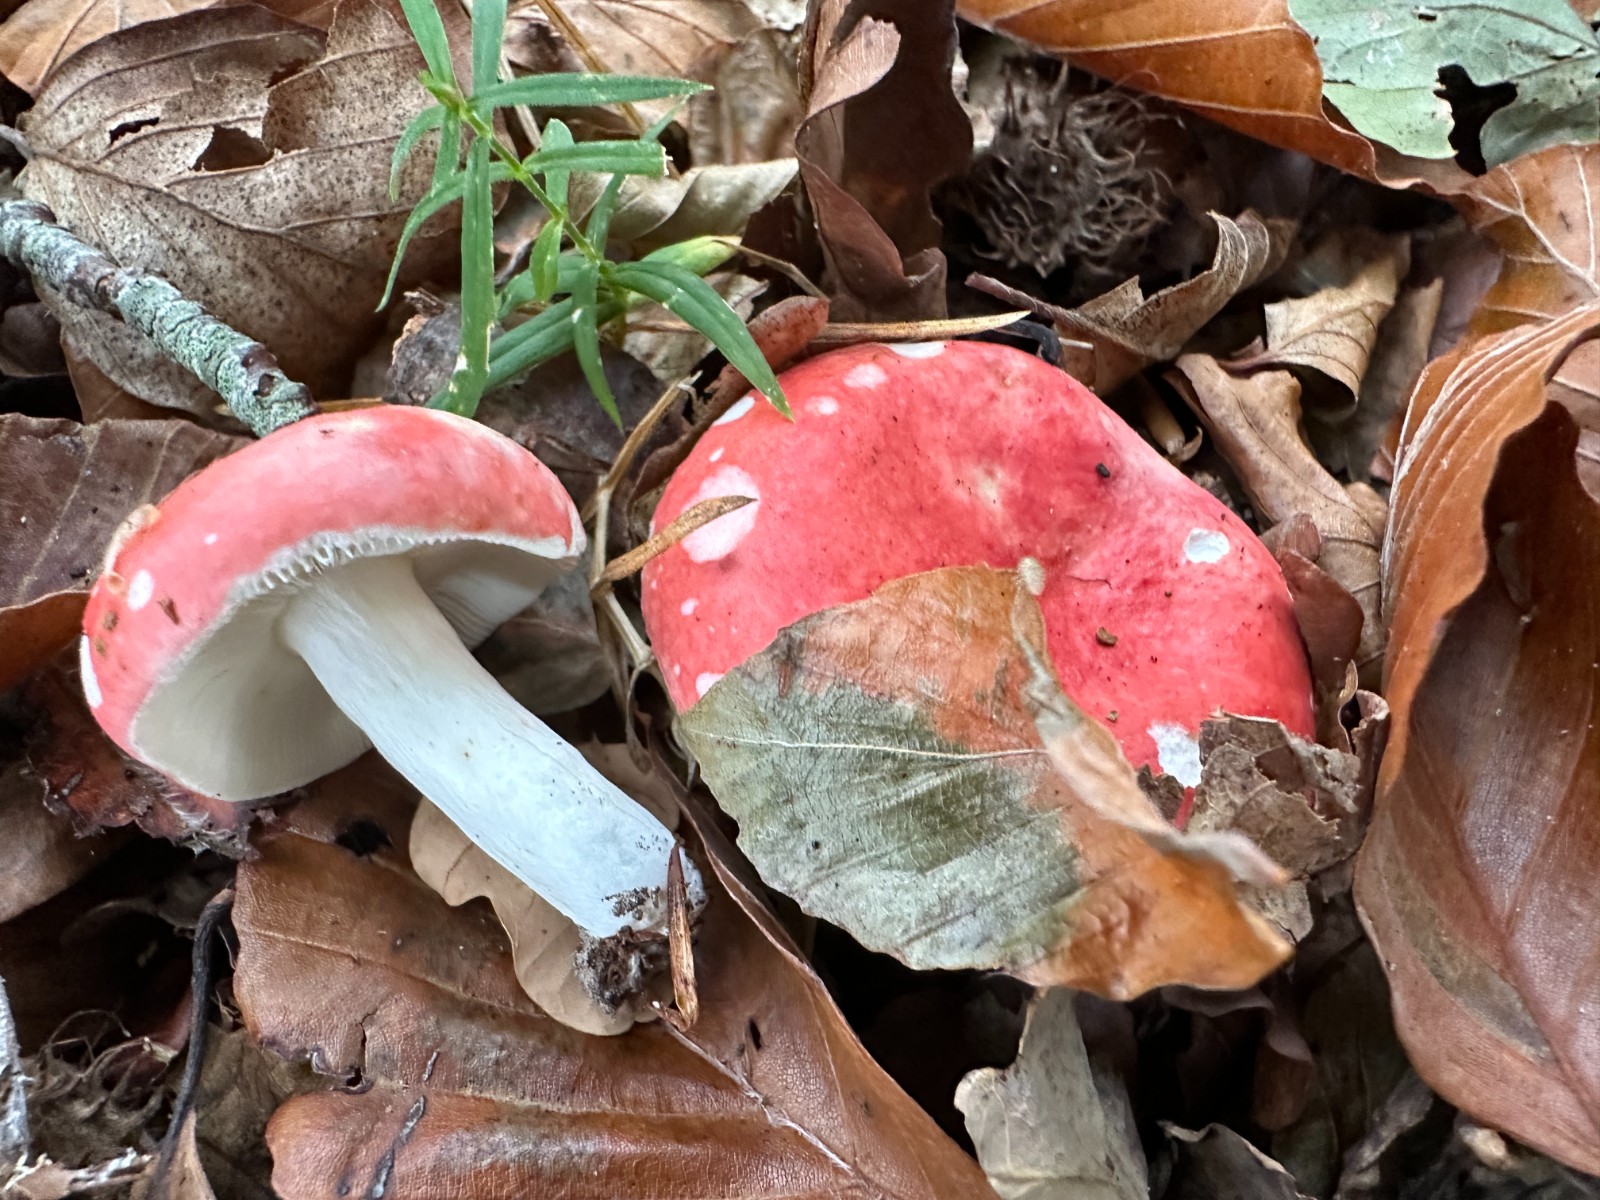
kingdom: Fungi
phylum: Basidiomycota
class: Agaricomycetes
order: Russulales
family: Russulaceae
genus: Russula
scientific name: Russula nobilis
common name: lille gift-skørhat
